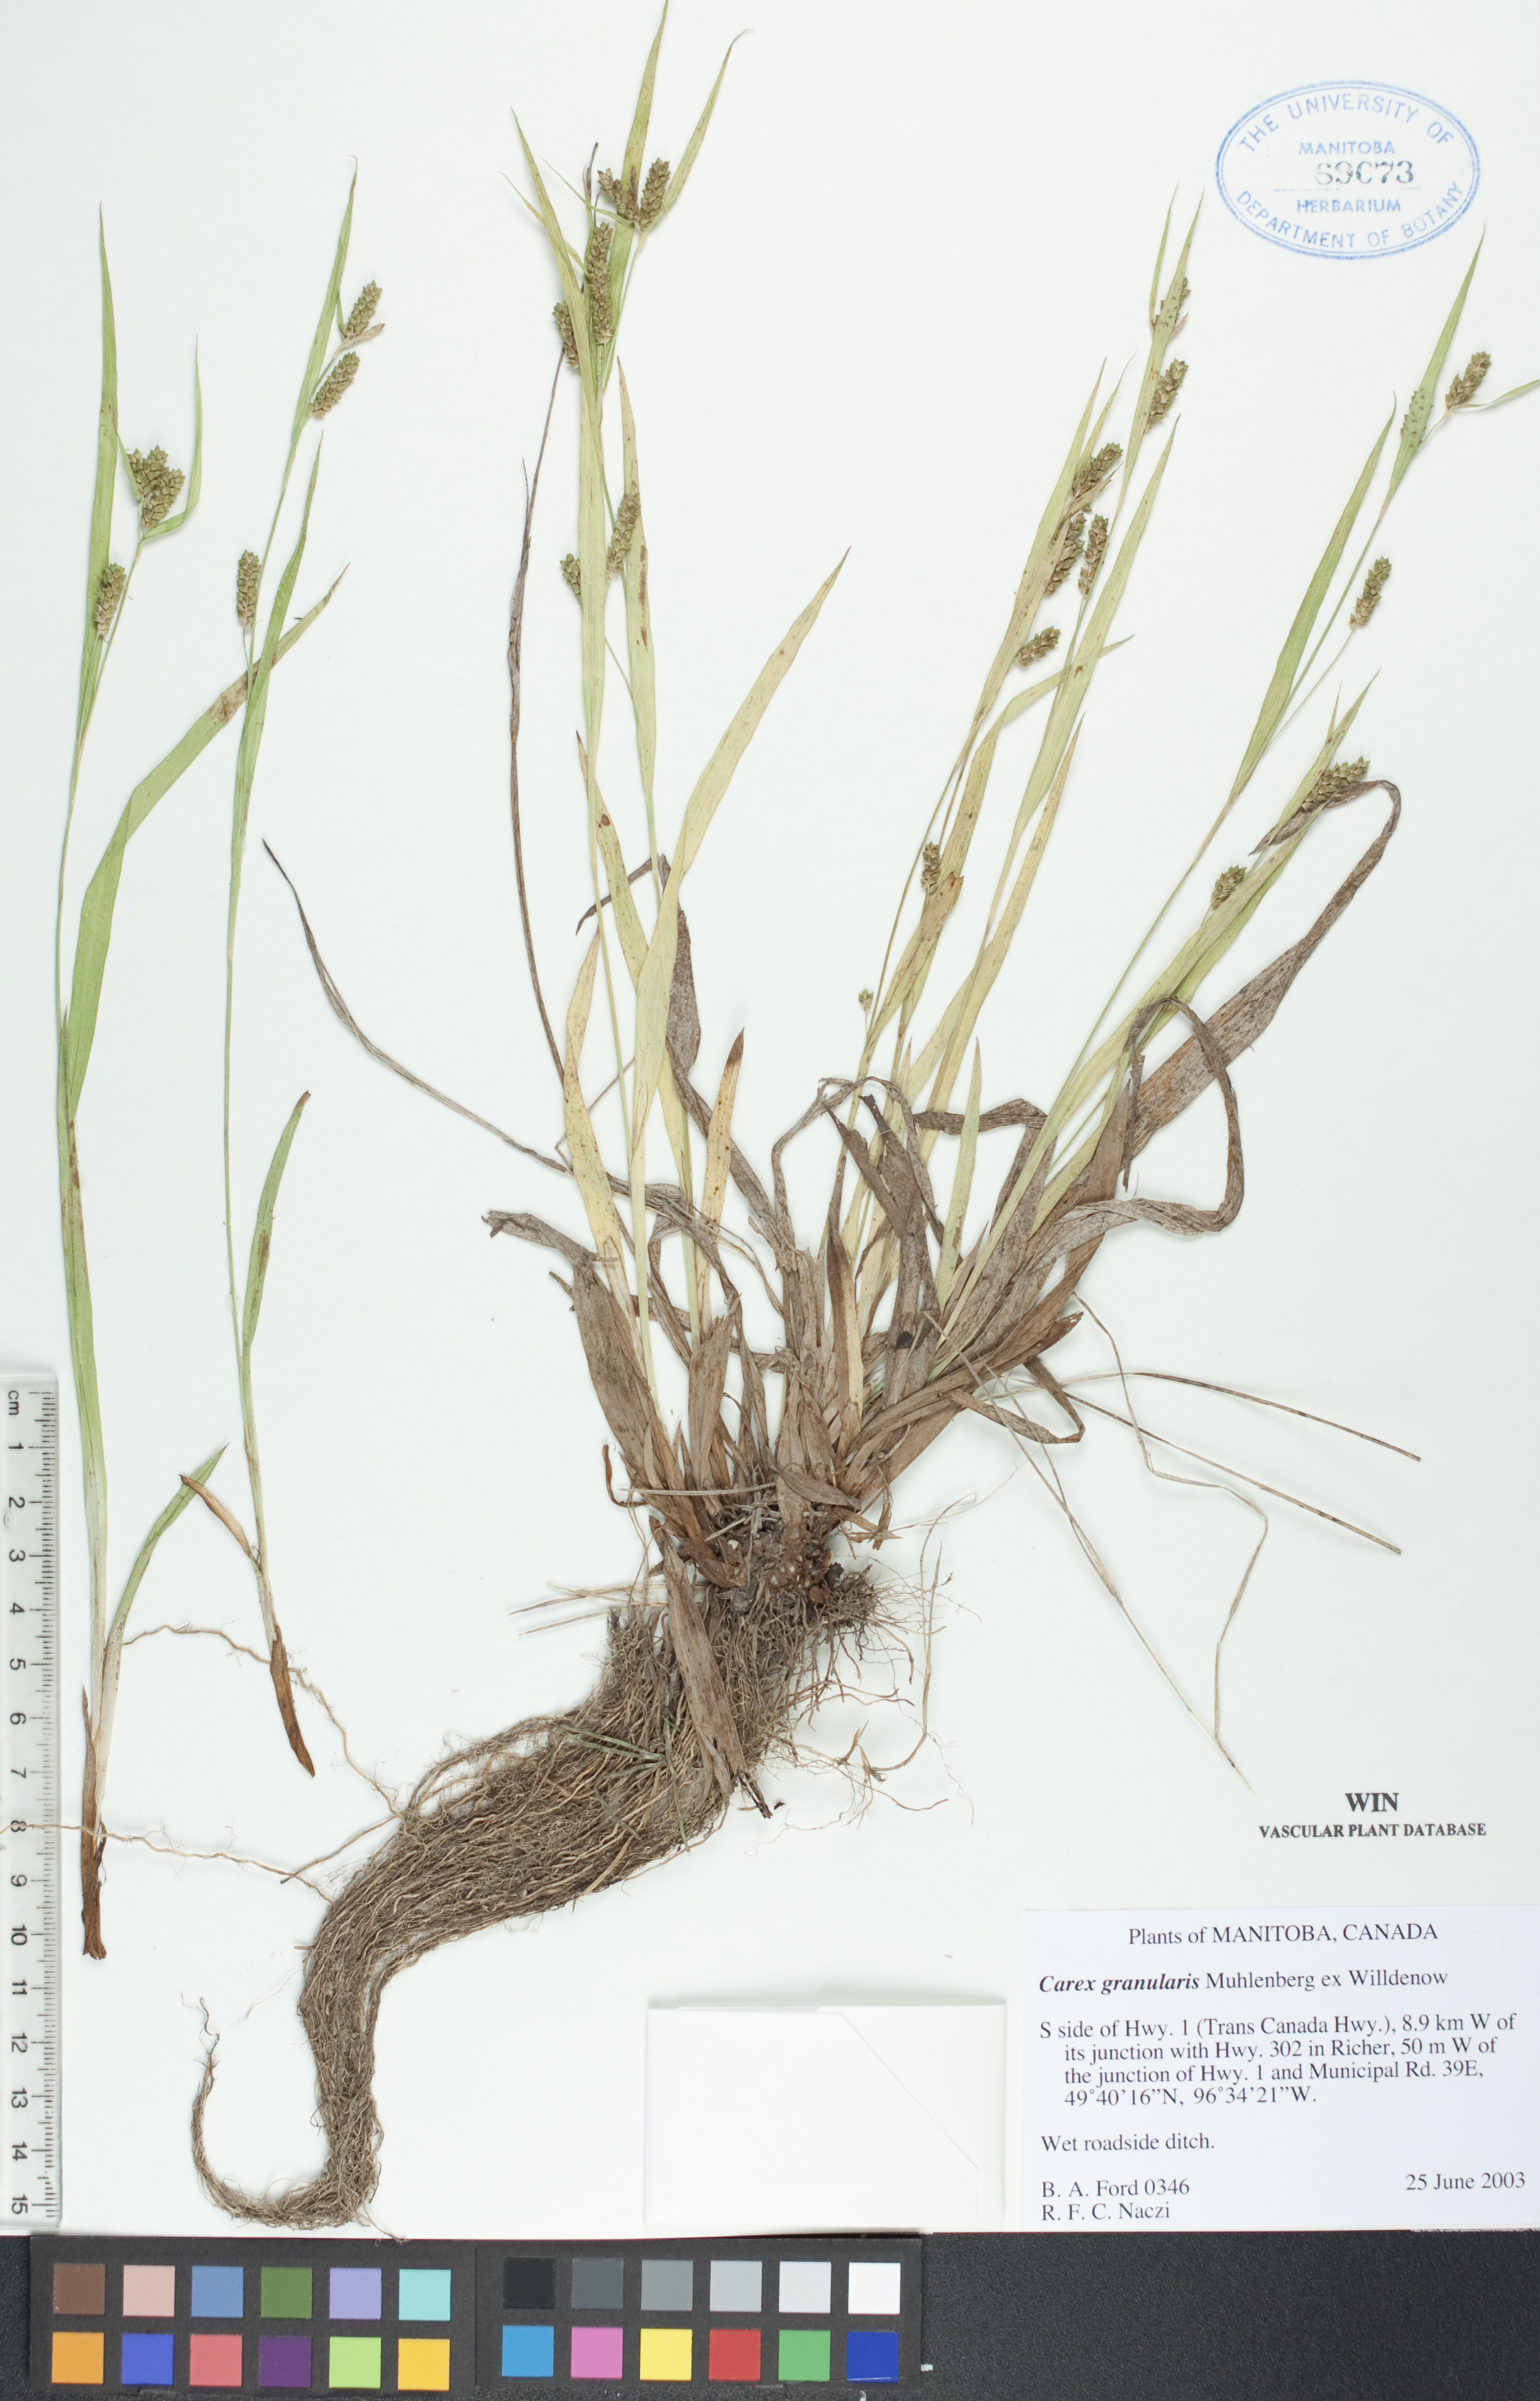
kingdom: Plantae
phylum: Tracheophyta
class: Liliopsida
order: Poales
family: Cyperaceae
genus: Carex
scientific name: Carex granularis
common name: Granular sedge
